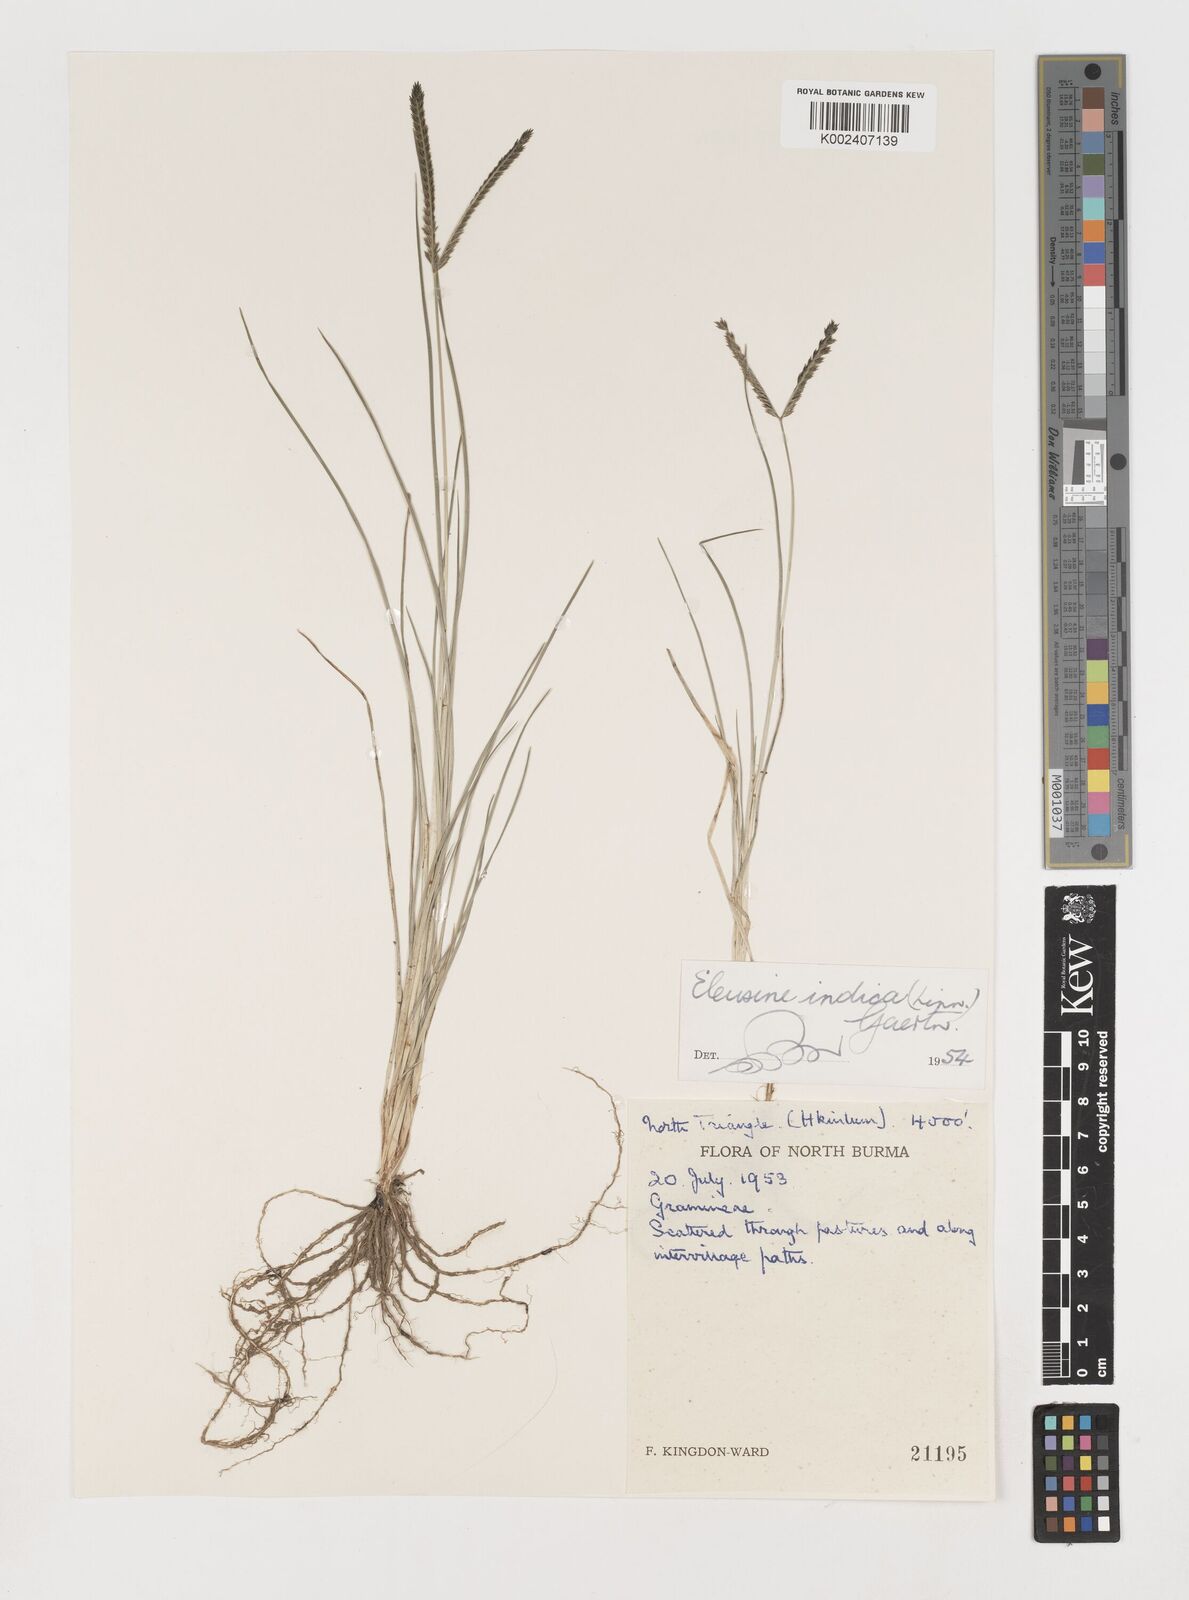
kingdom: Plantae
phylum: Tracheophyta
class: Liliopsida
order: Poales
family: Poaceae
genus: Eleusine
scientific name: Eleusine indica
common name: Yard-grass
